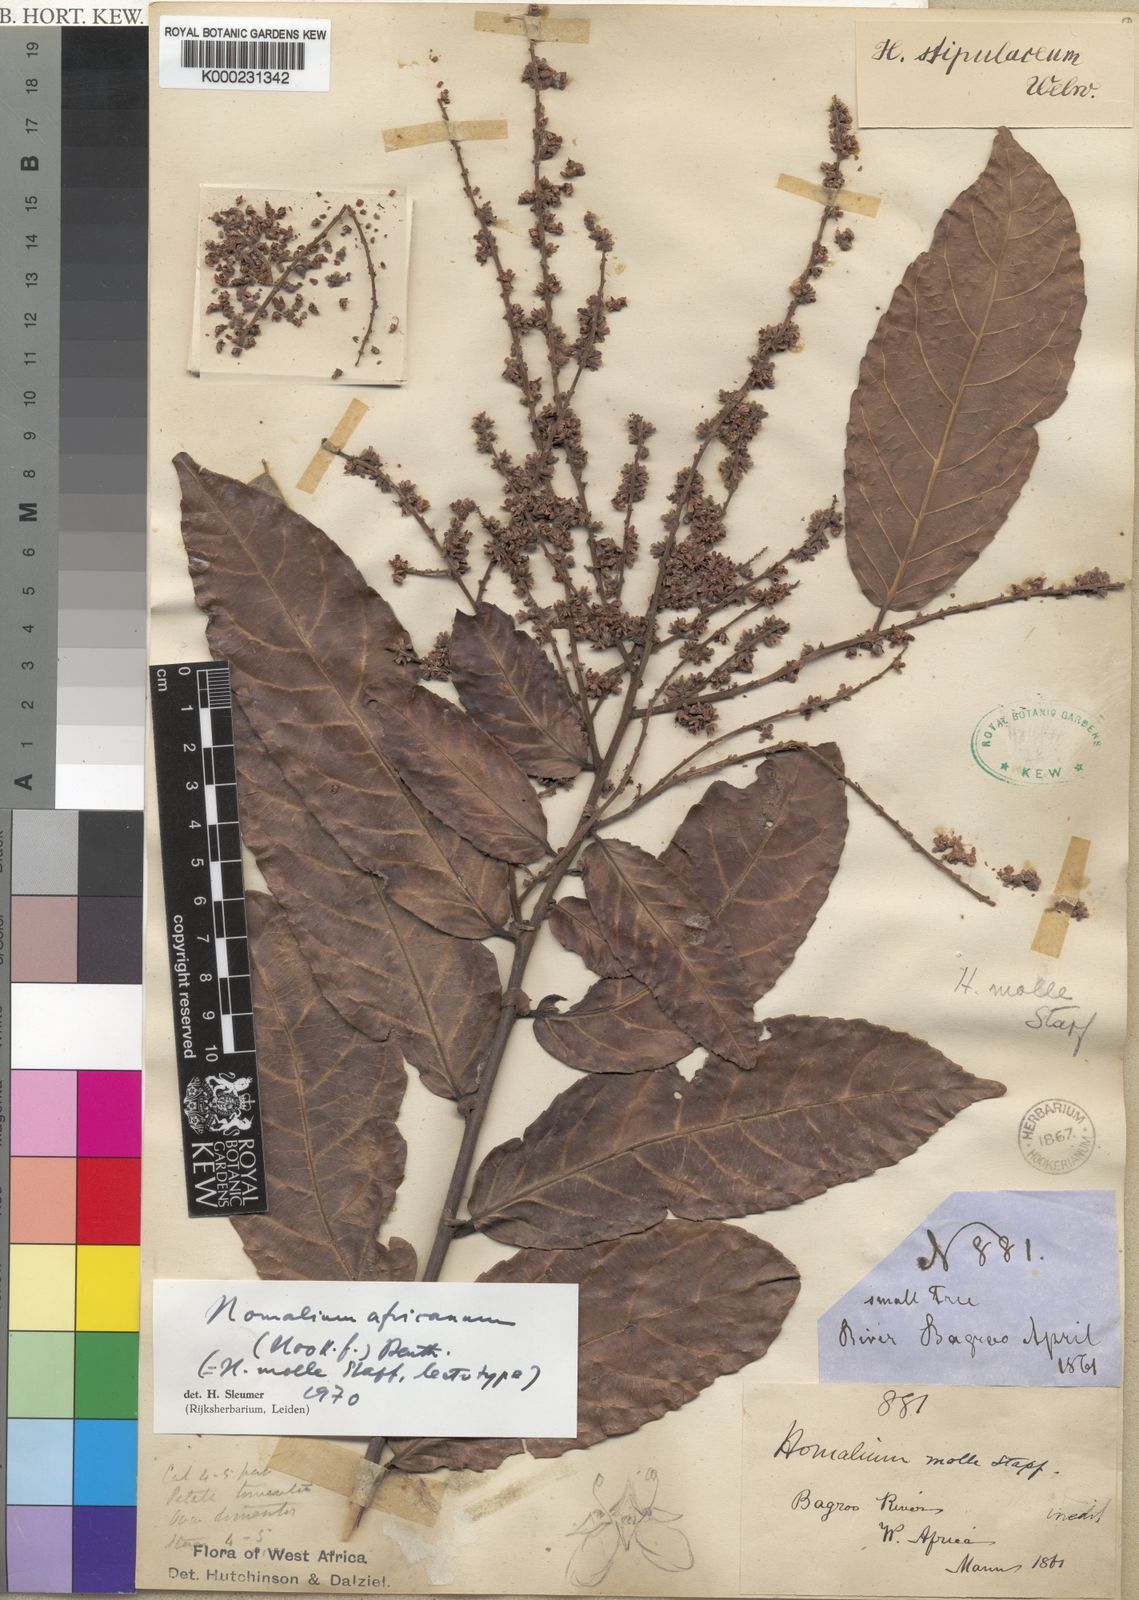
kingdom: Plantae
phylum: Tracheophyta
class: Magnoliopsida
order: Malpighiales
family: Salicaceae
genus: Homalium
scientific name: Homalium africanum
